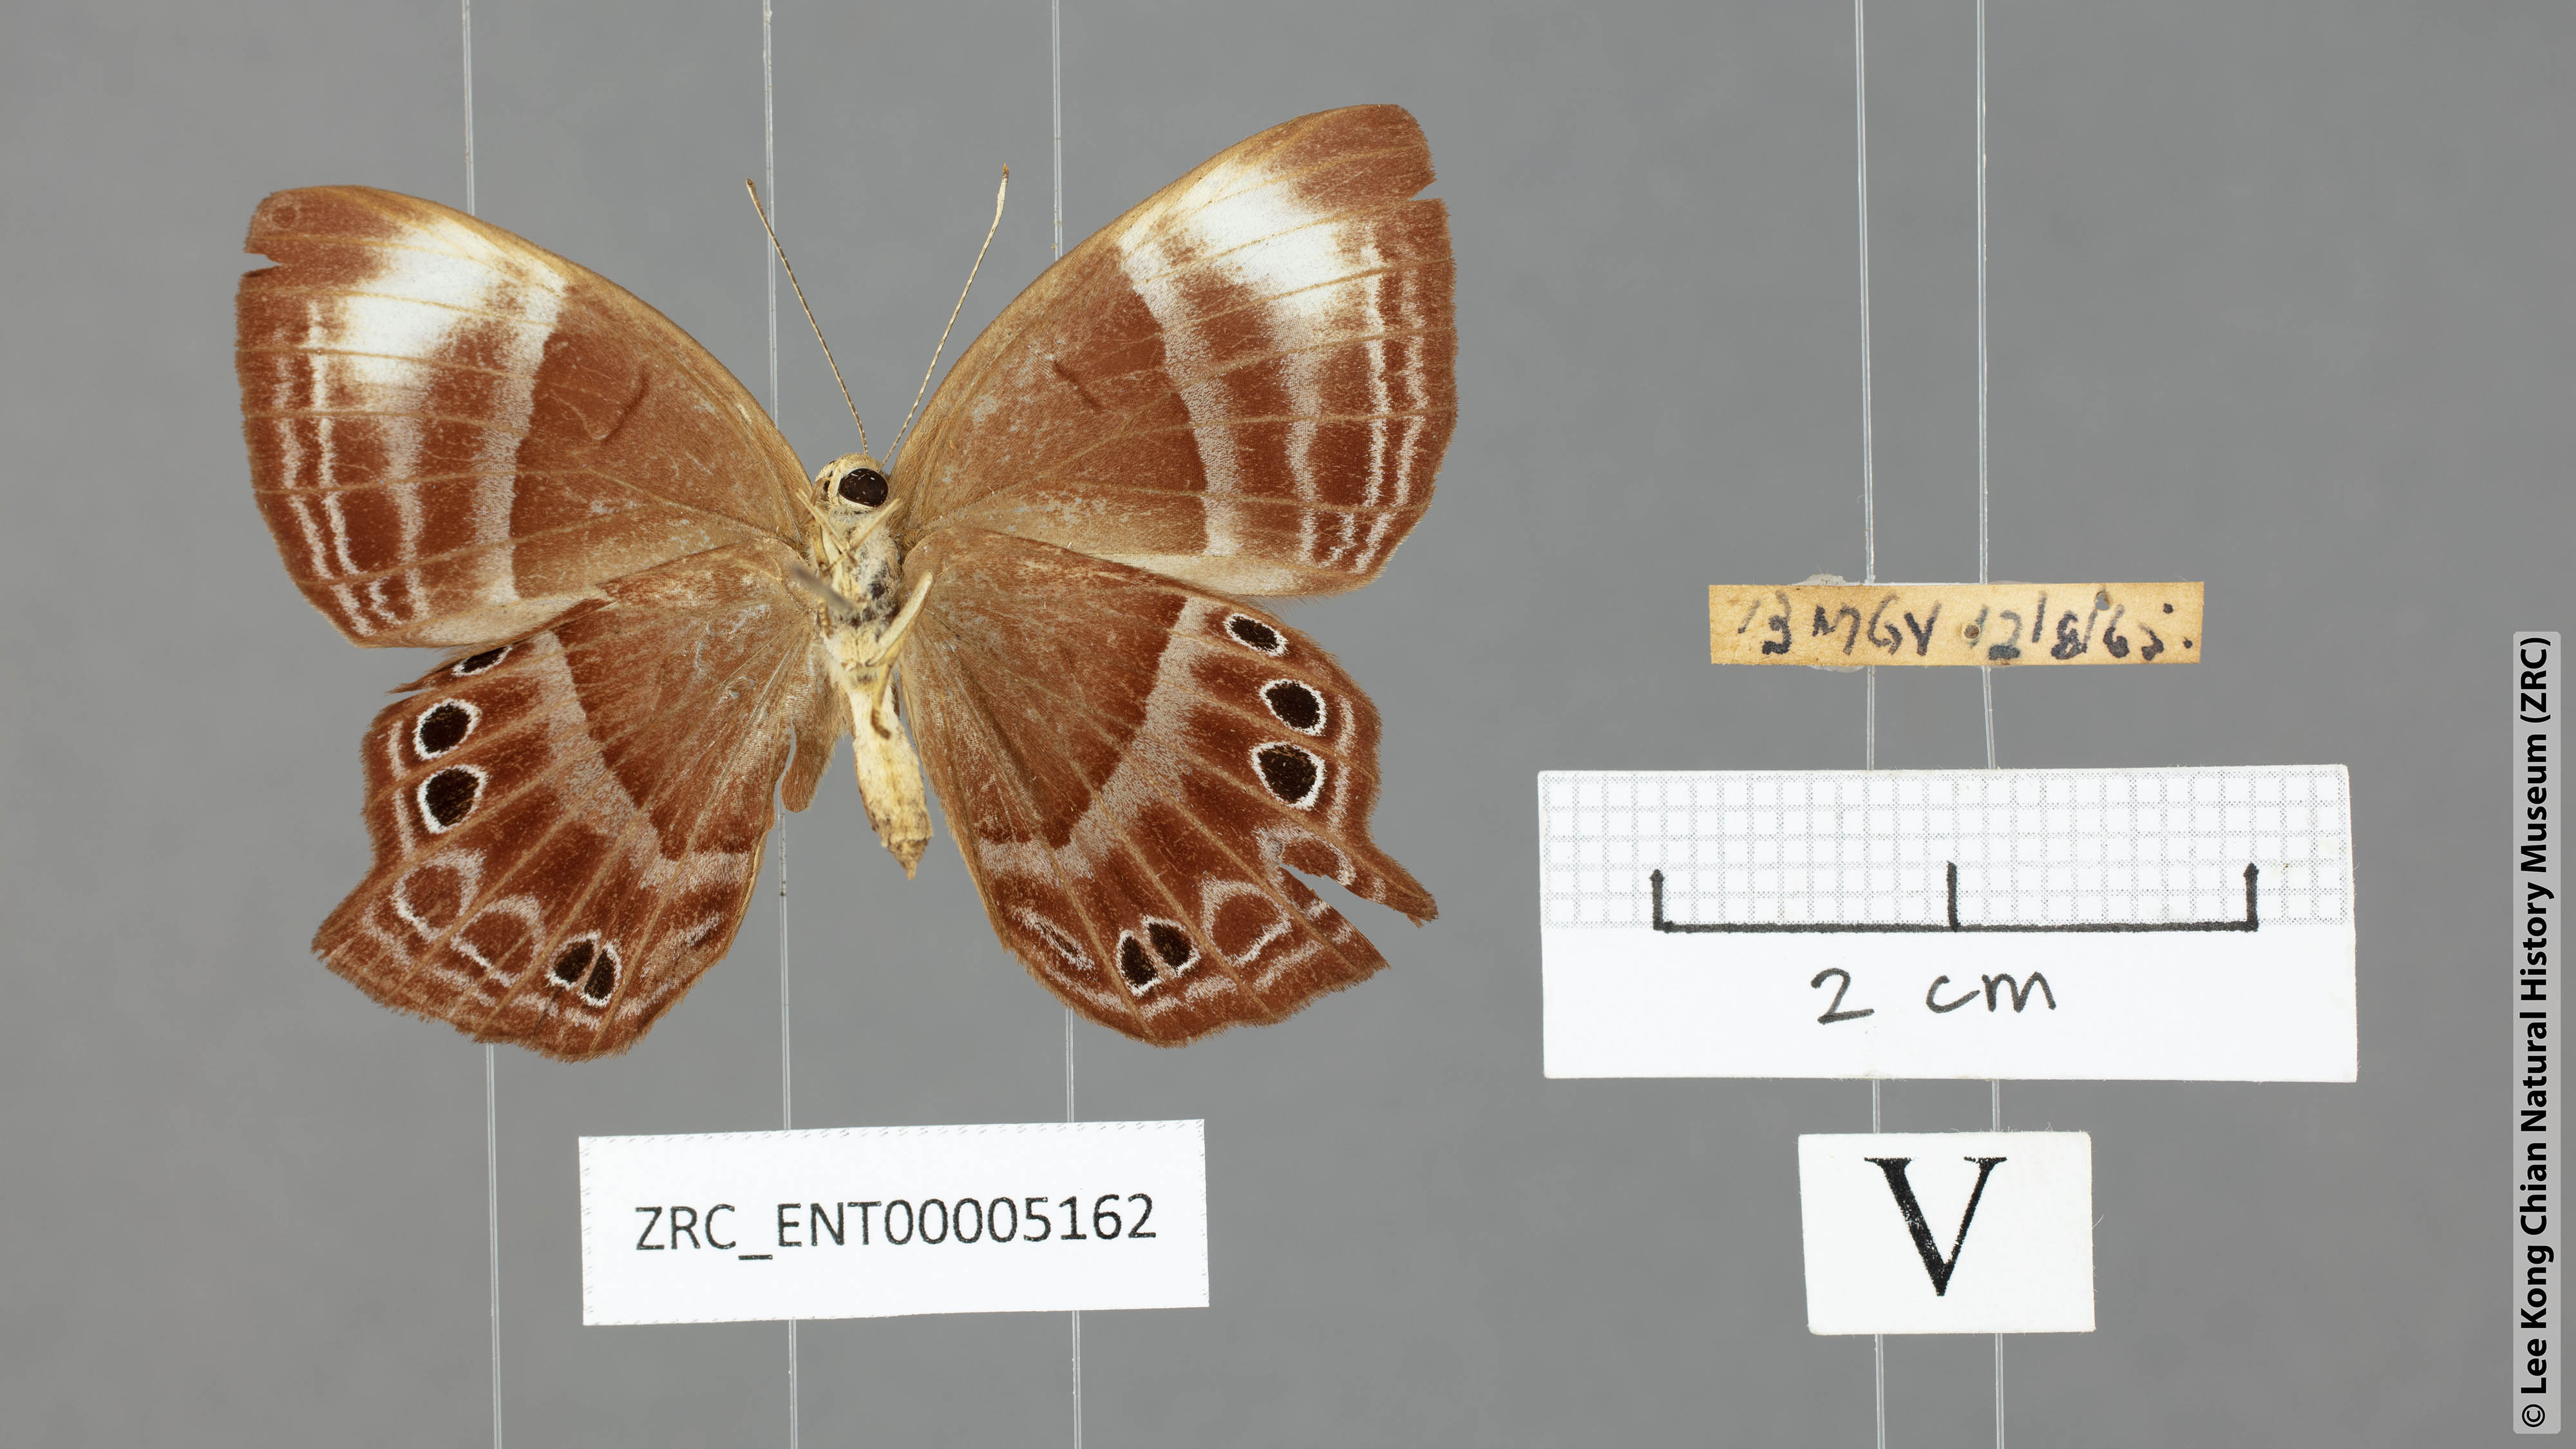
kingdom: Animalia
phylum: Arthropoda
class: Insecta
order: Lepidoptera
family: Lycaenidae
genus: Abisara
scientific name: Abisara kausambi
